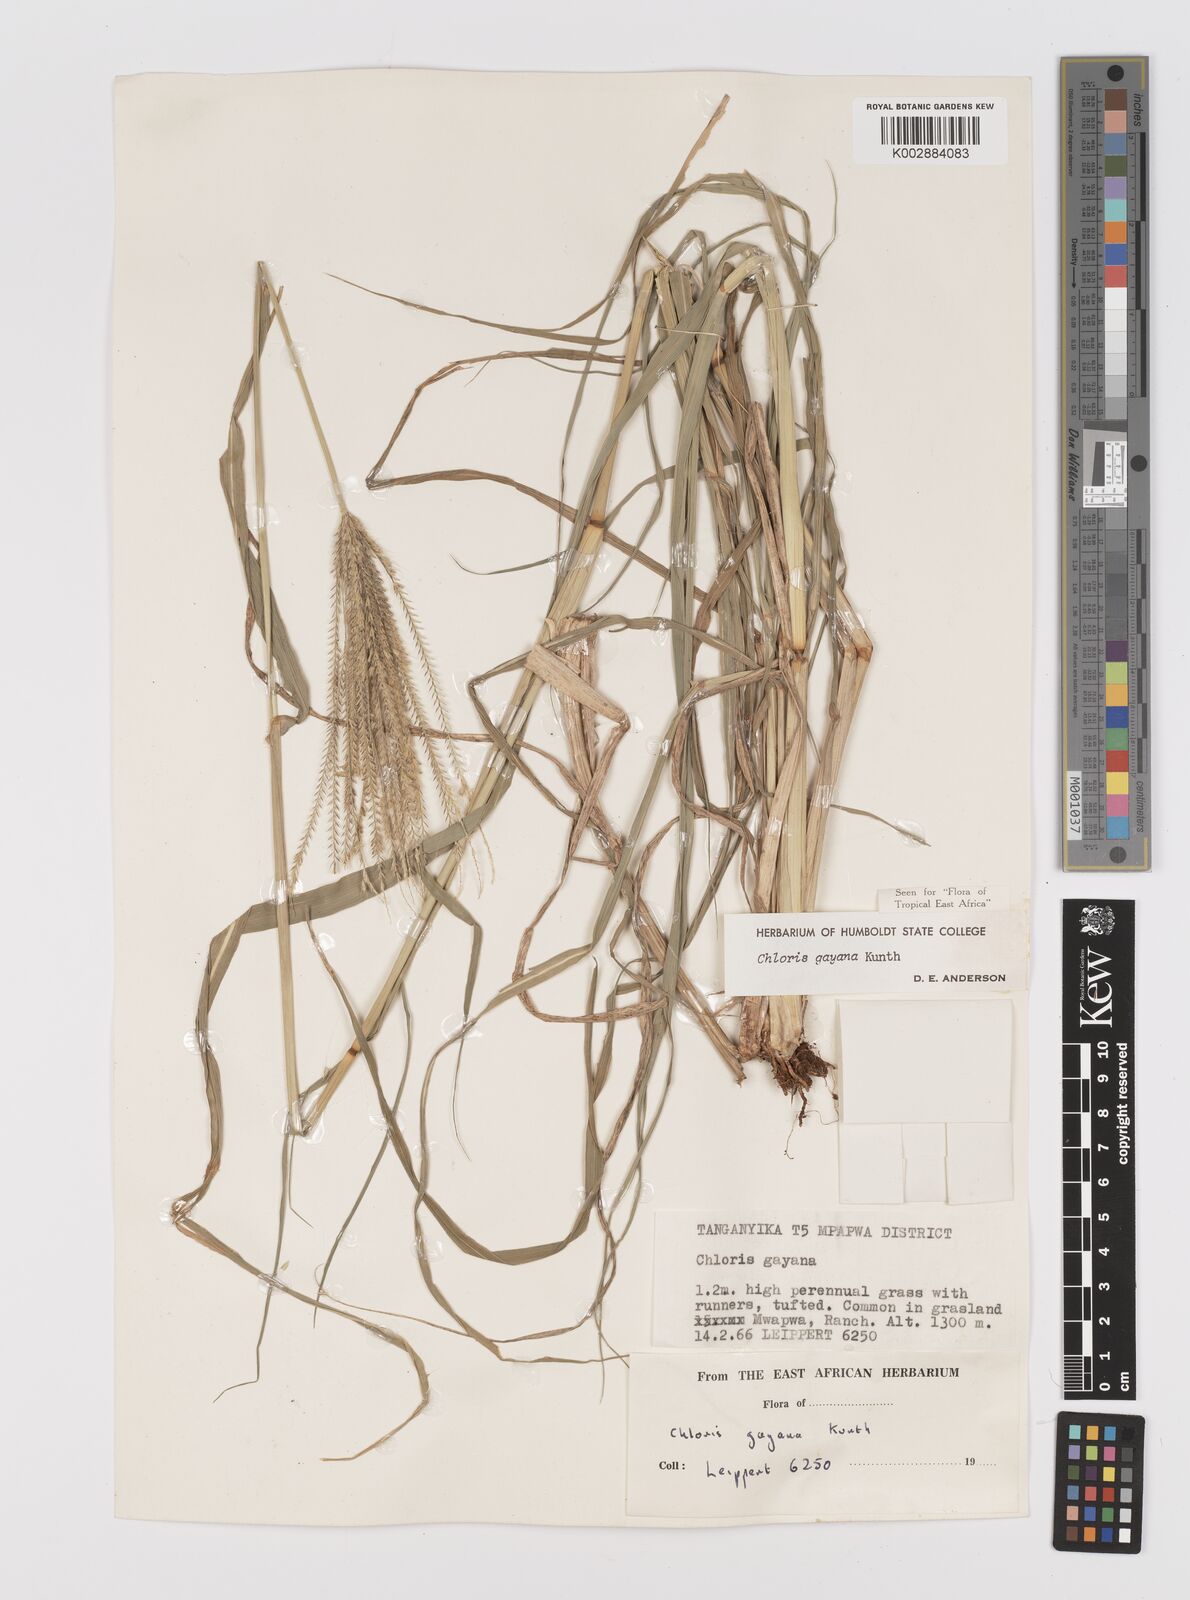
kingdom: Plantae
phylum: Tracheophyta
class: Liliopsida
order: Poales
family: Poaceae
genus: Chloris
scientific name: Chloris gayana
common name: Rhodes grass
